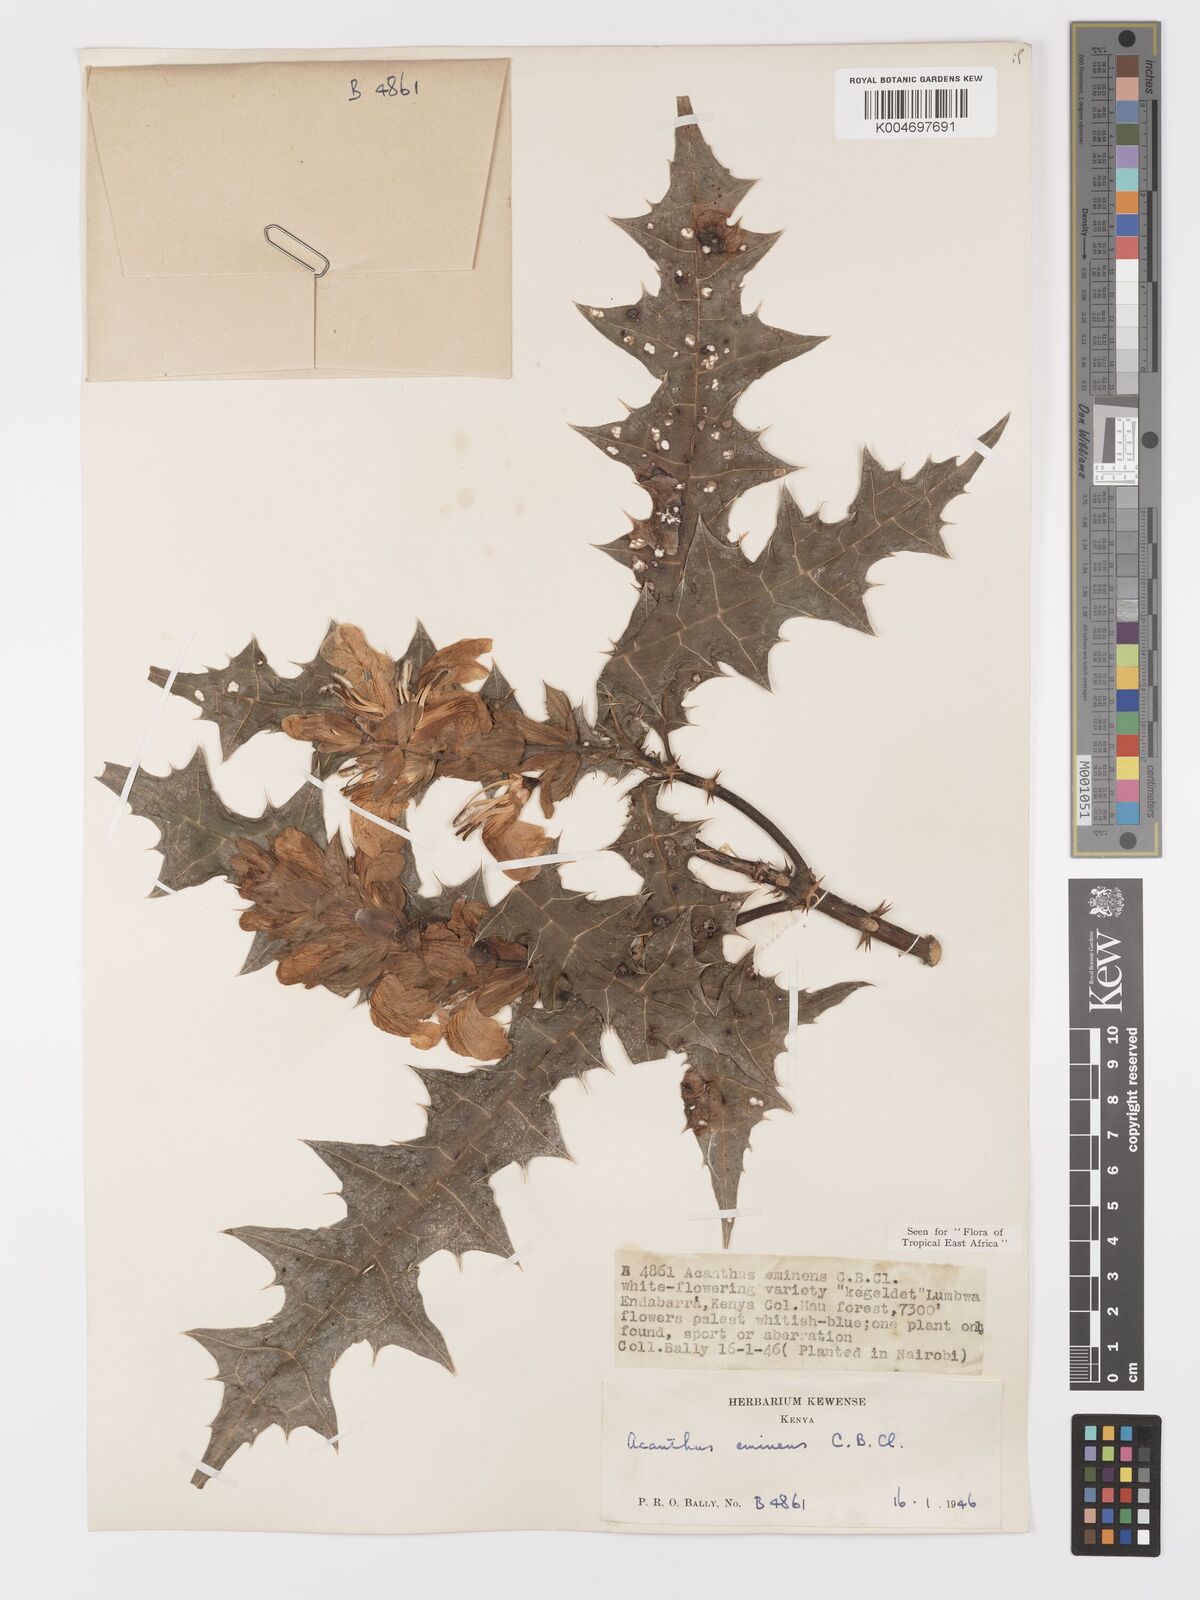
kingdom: Plantae
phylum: Tracheophyta
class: Magnoliopsida
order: Lamiales
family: Acanthaceae
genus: Acanthus
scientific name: Acanthus eminens
